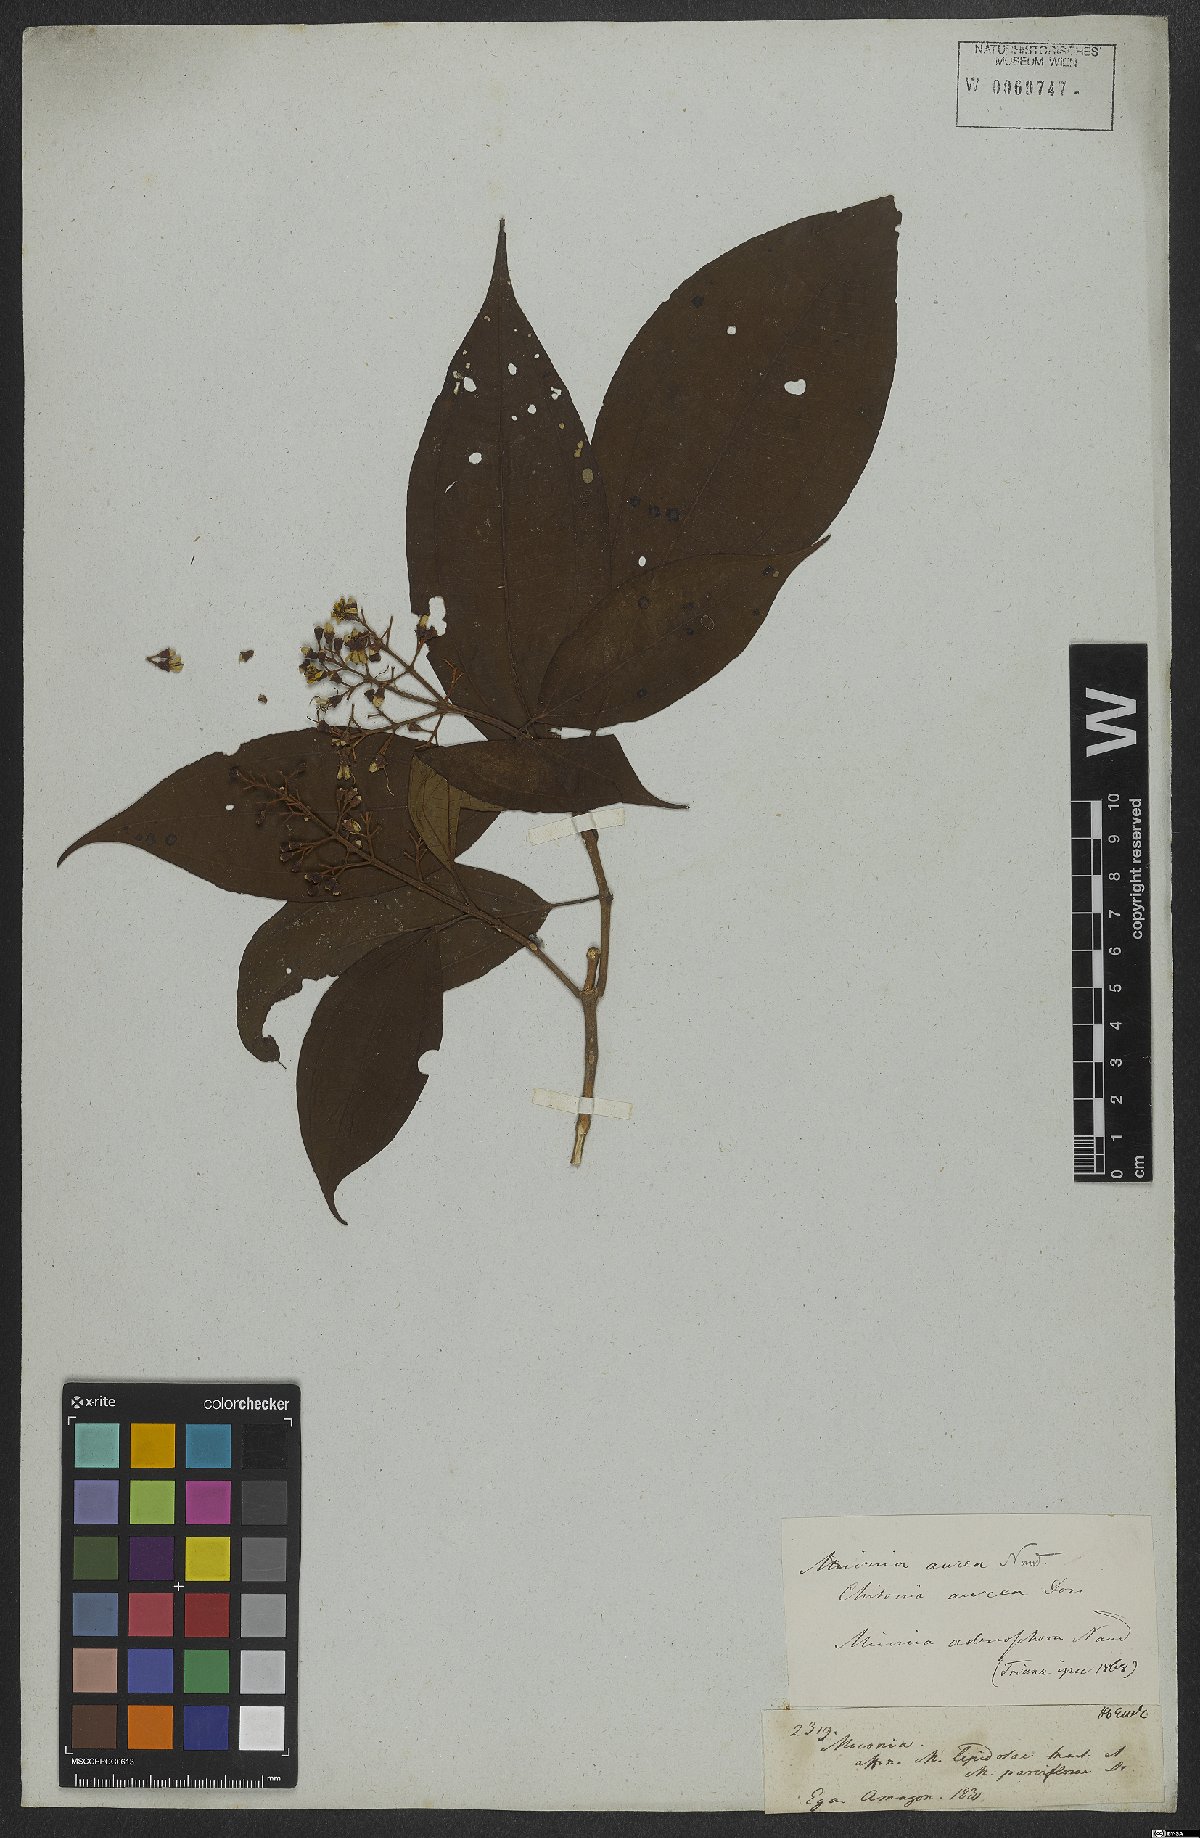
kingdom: Plantae
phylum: Tracheophyta
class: Magnoliopsida
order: Myrtales
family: Melastomataceae
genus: Miconia
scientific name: Miconia aurea
